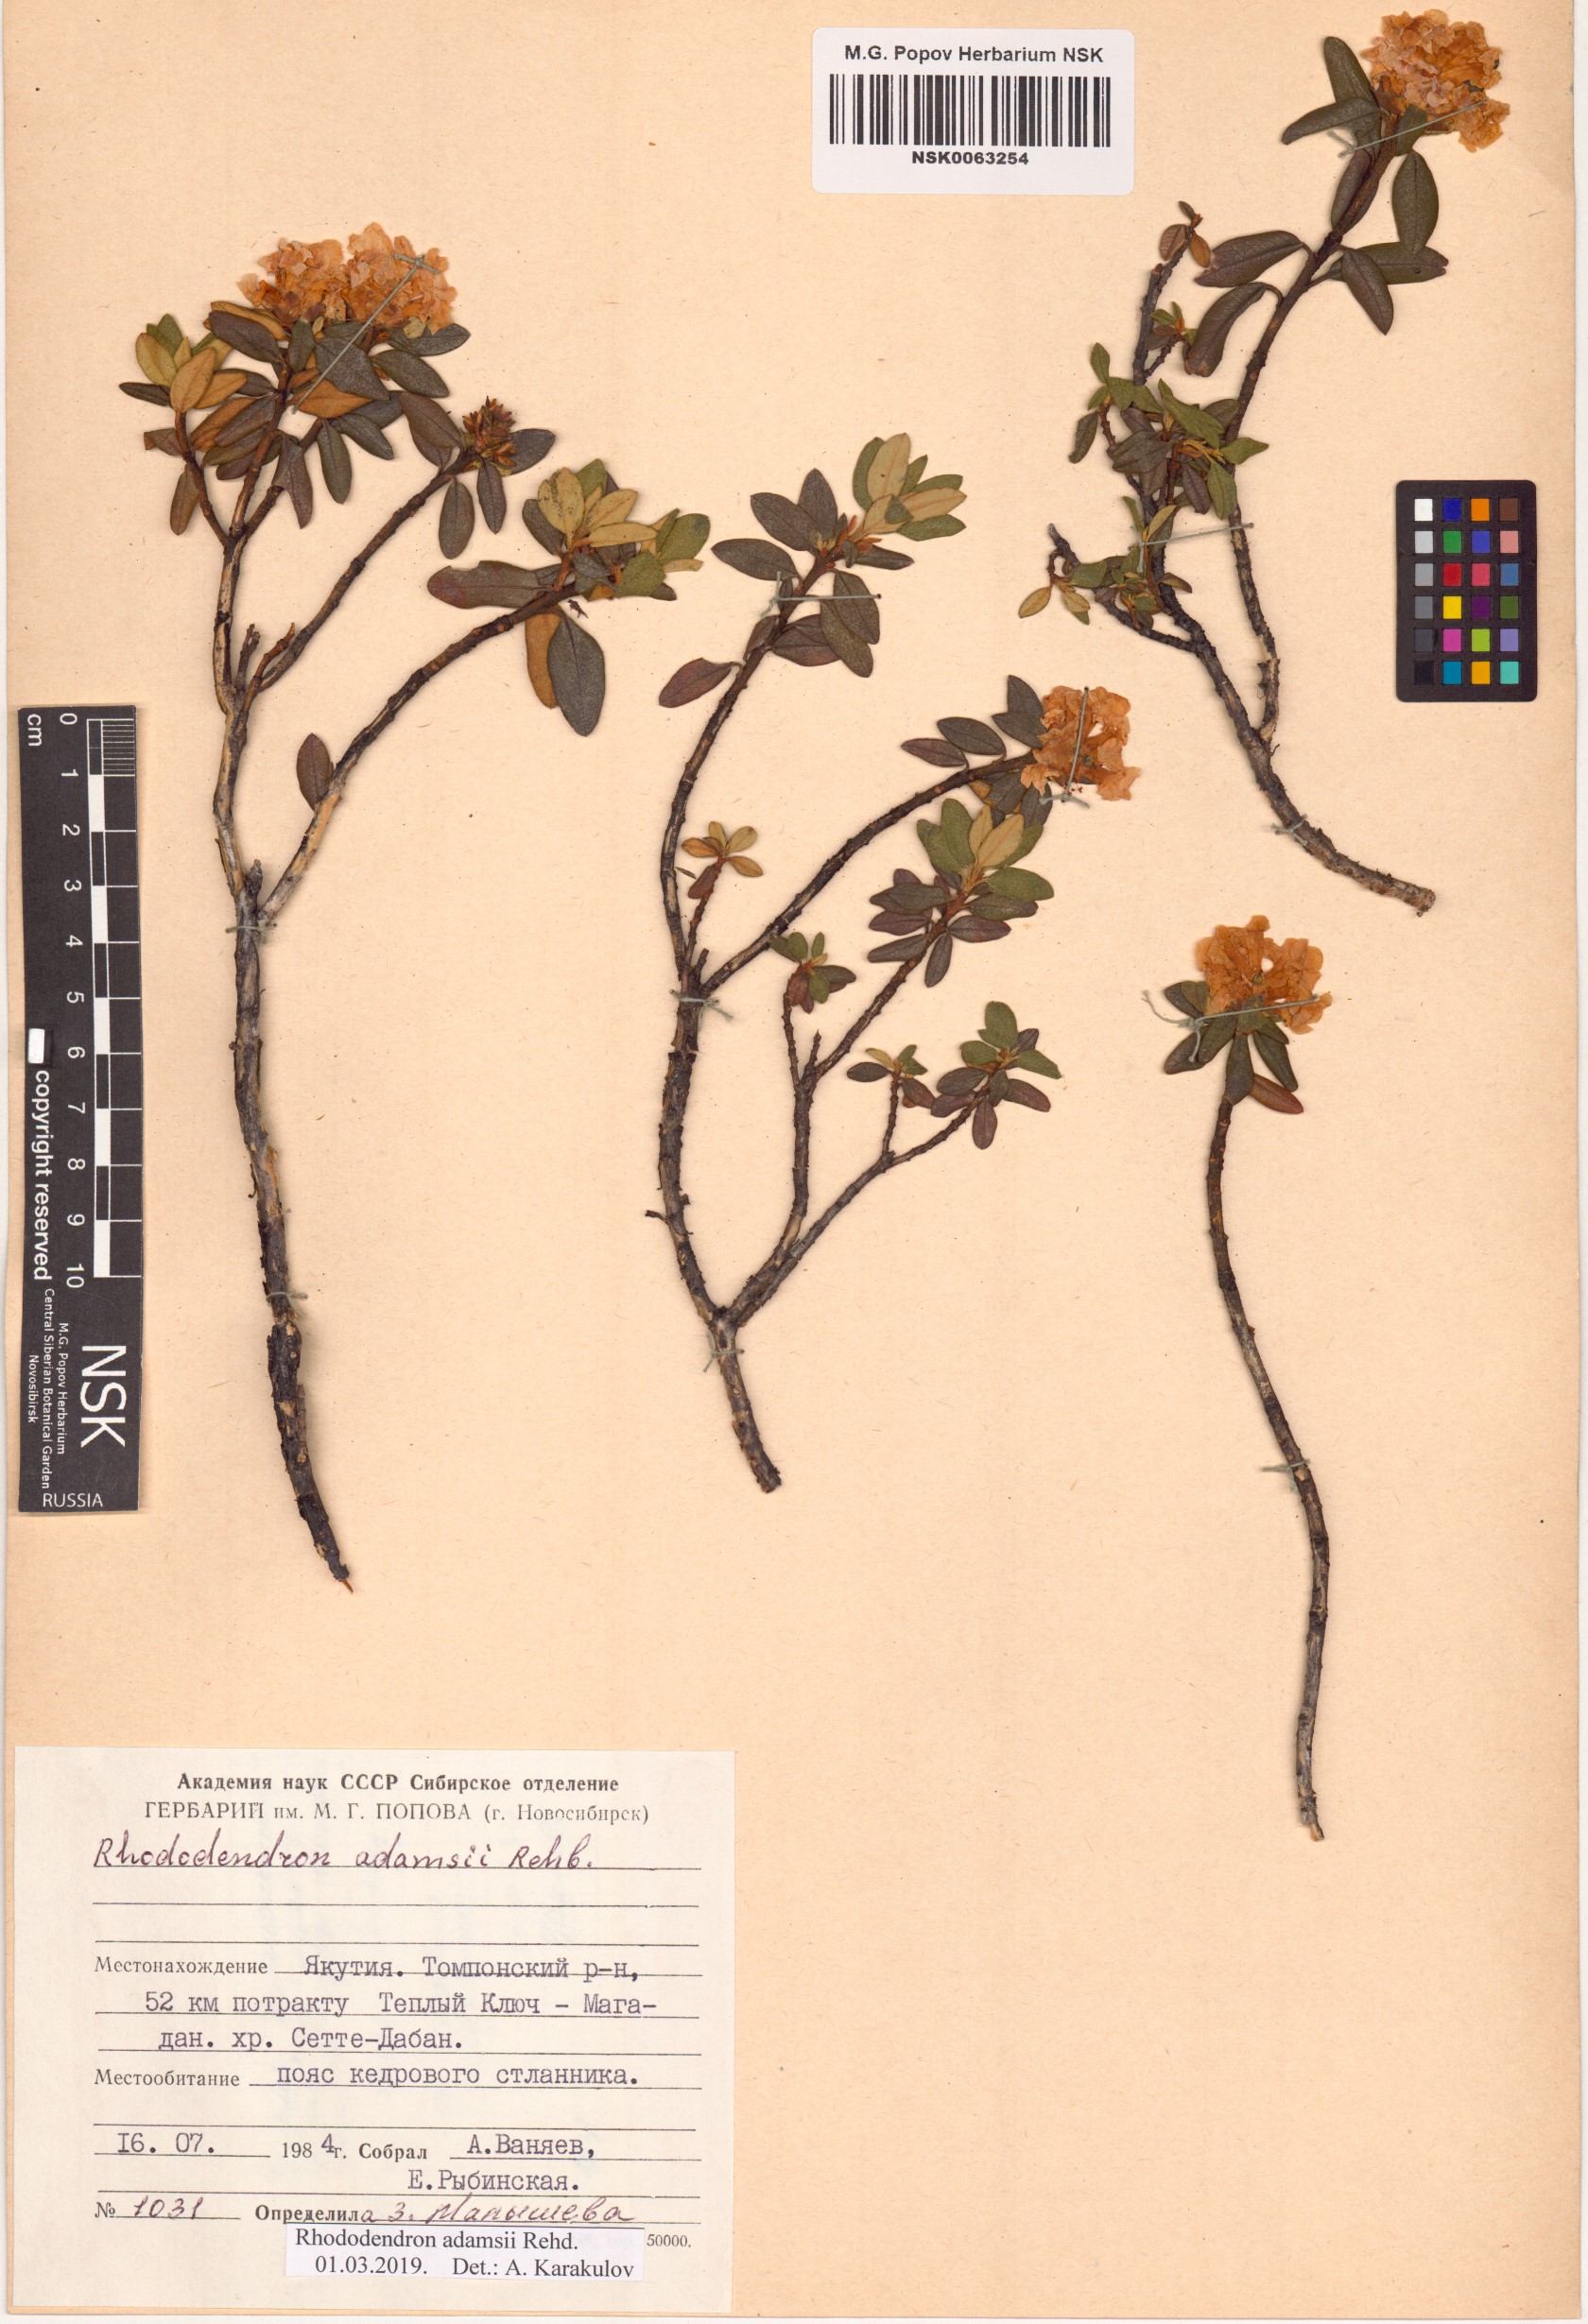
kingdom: Plantae
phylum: Tracheophyta
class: Magnoliopsida
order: Ericales
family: Ericaceae
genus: Rhododendron
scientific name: Rhododendron adamsii
